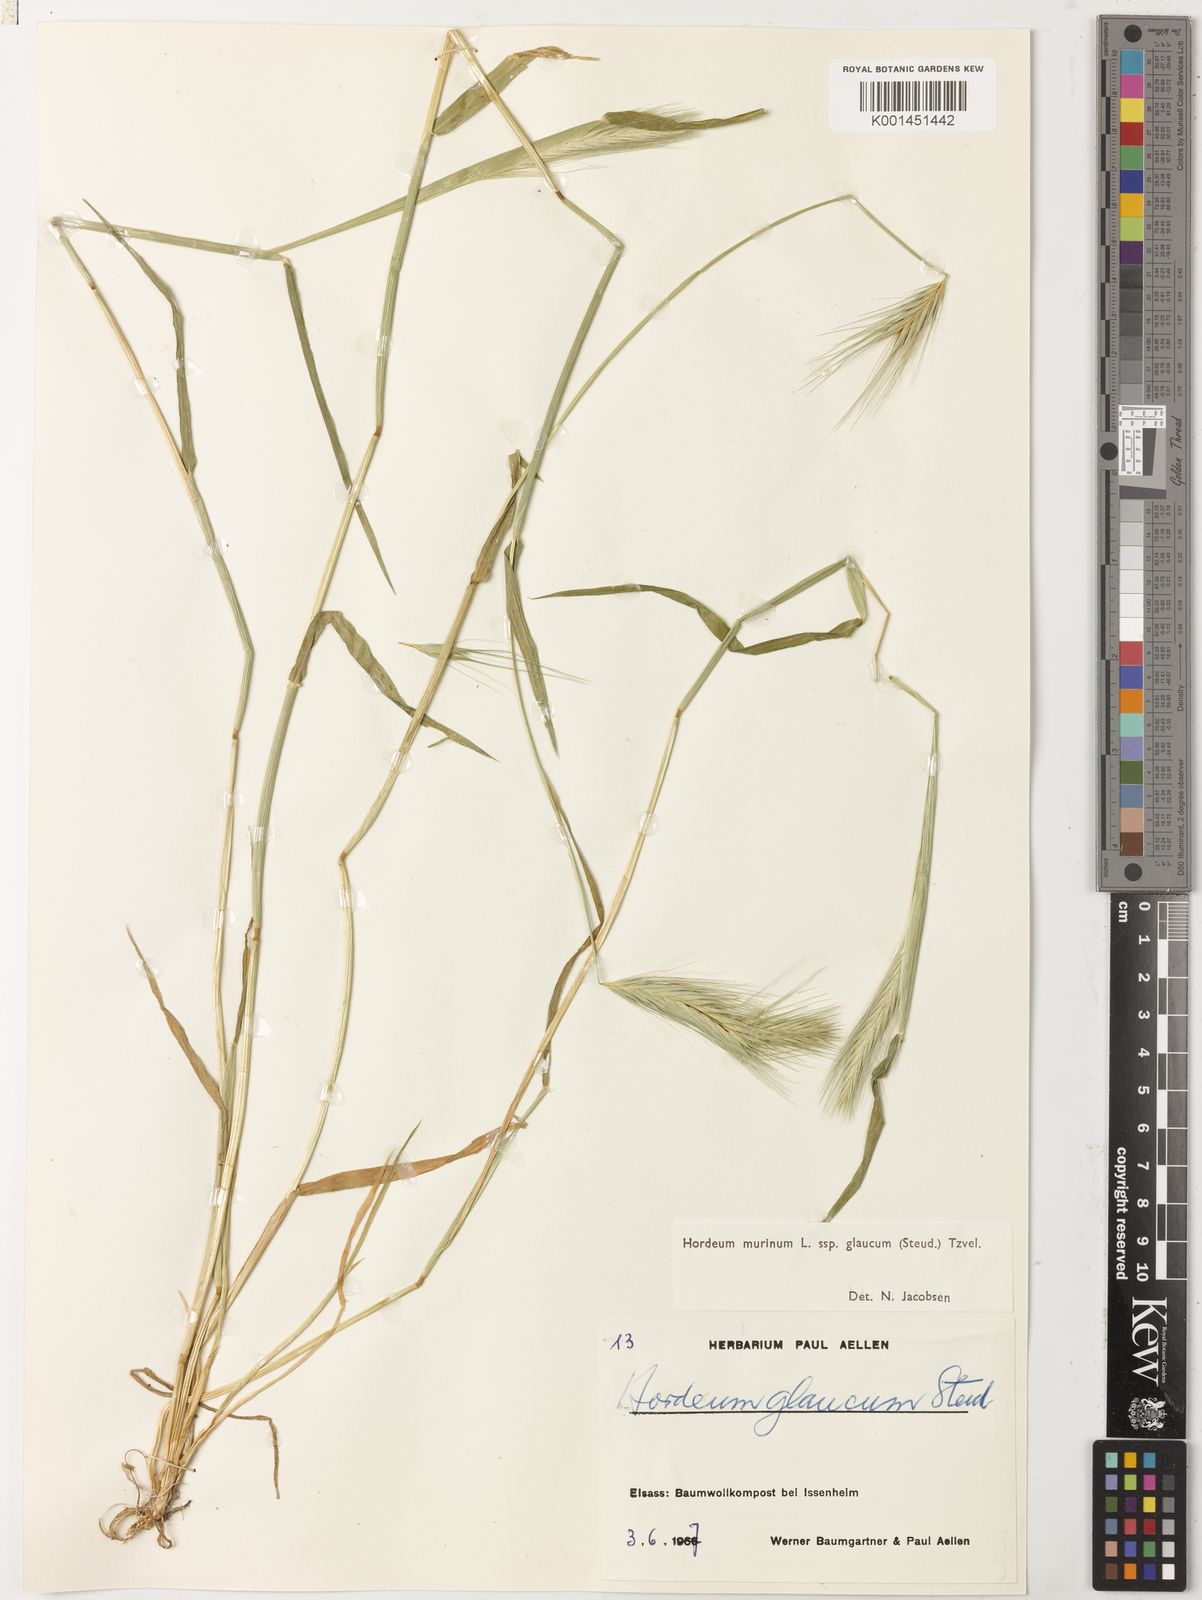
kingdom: Plantae
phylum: Tracheophyta
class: Liliopsida
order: Poales
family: Poaceae
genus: Hordeum
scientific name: Hordeum murinum
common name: Wall barley
